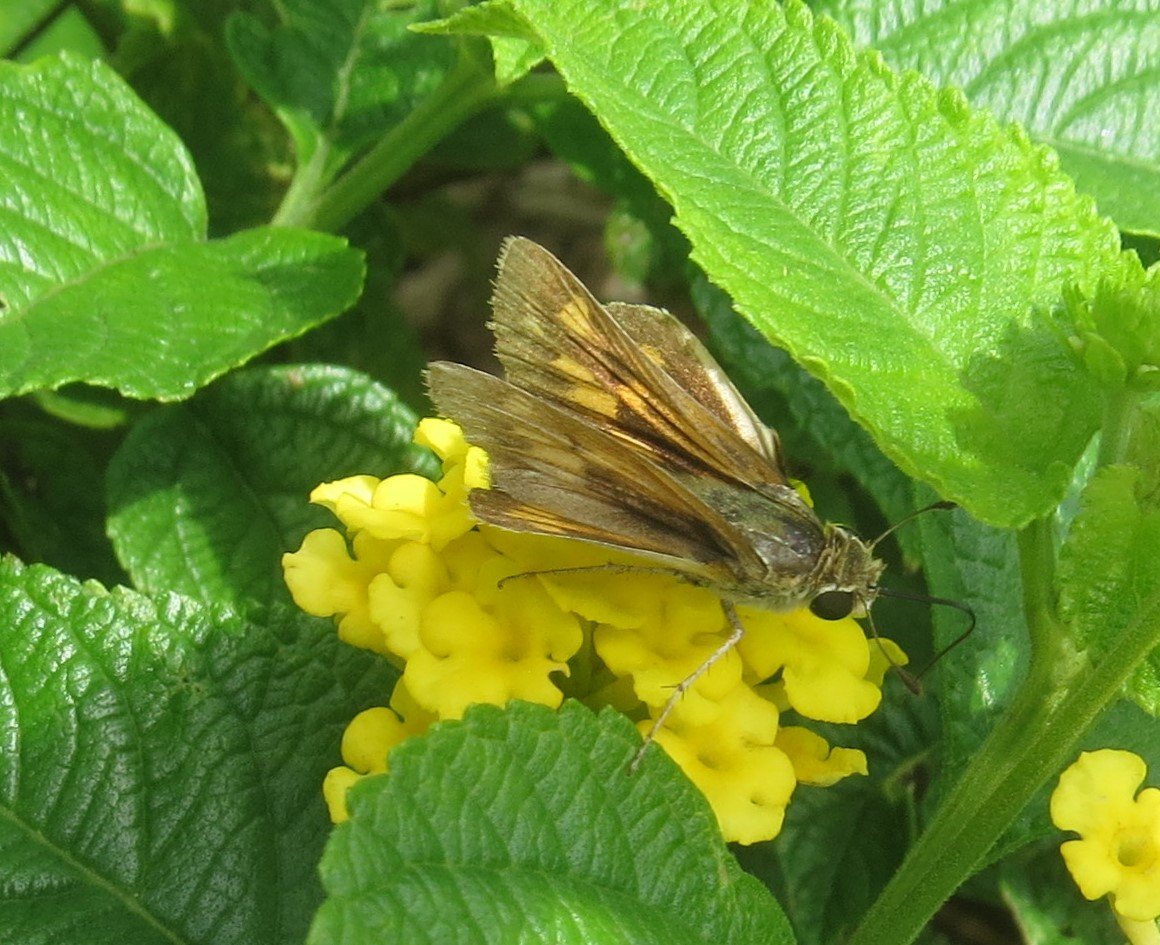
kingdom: Animalia
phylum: Arthropoda
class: Insecta
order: Lepidoptera
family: Hesperiidae
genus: Hylephila
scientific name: Hylephila phyleus
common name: Fiery Skipper
